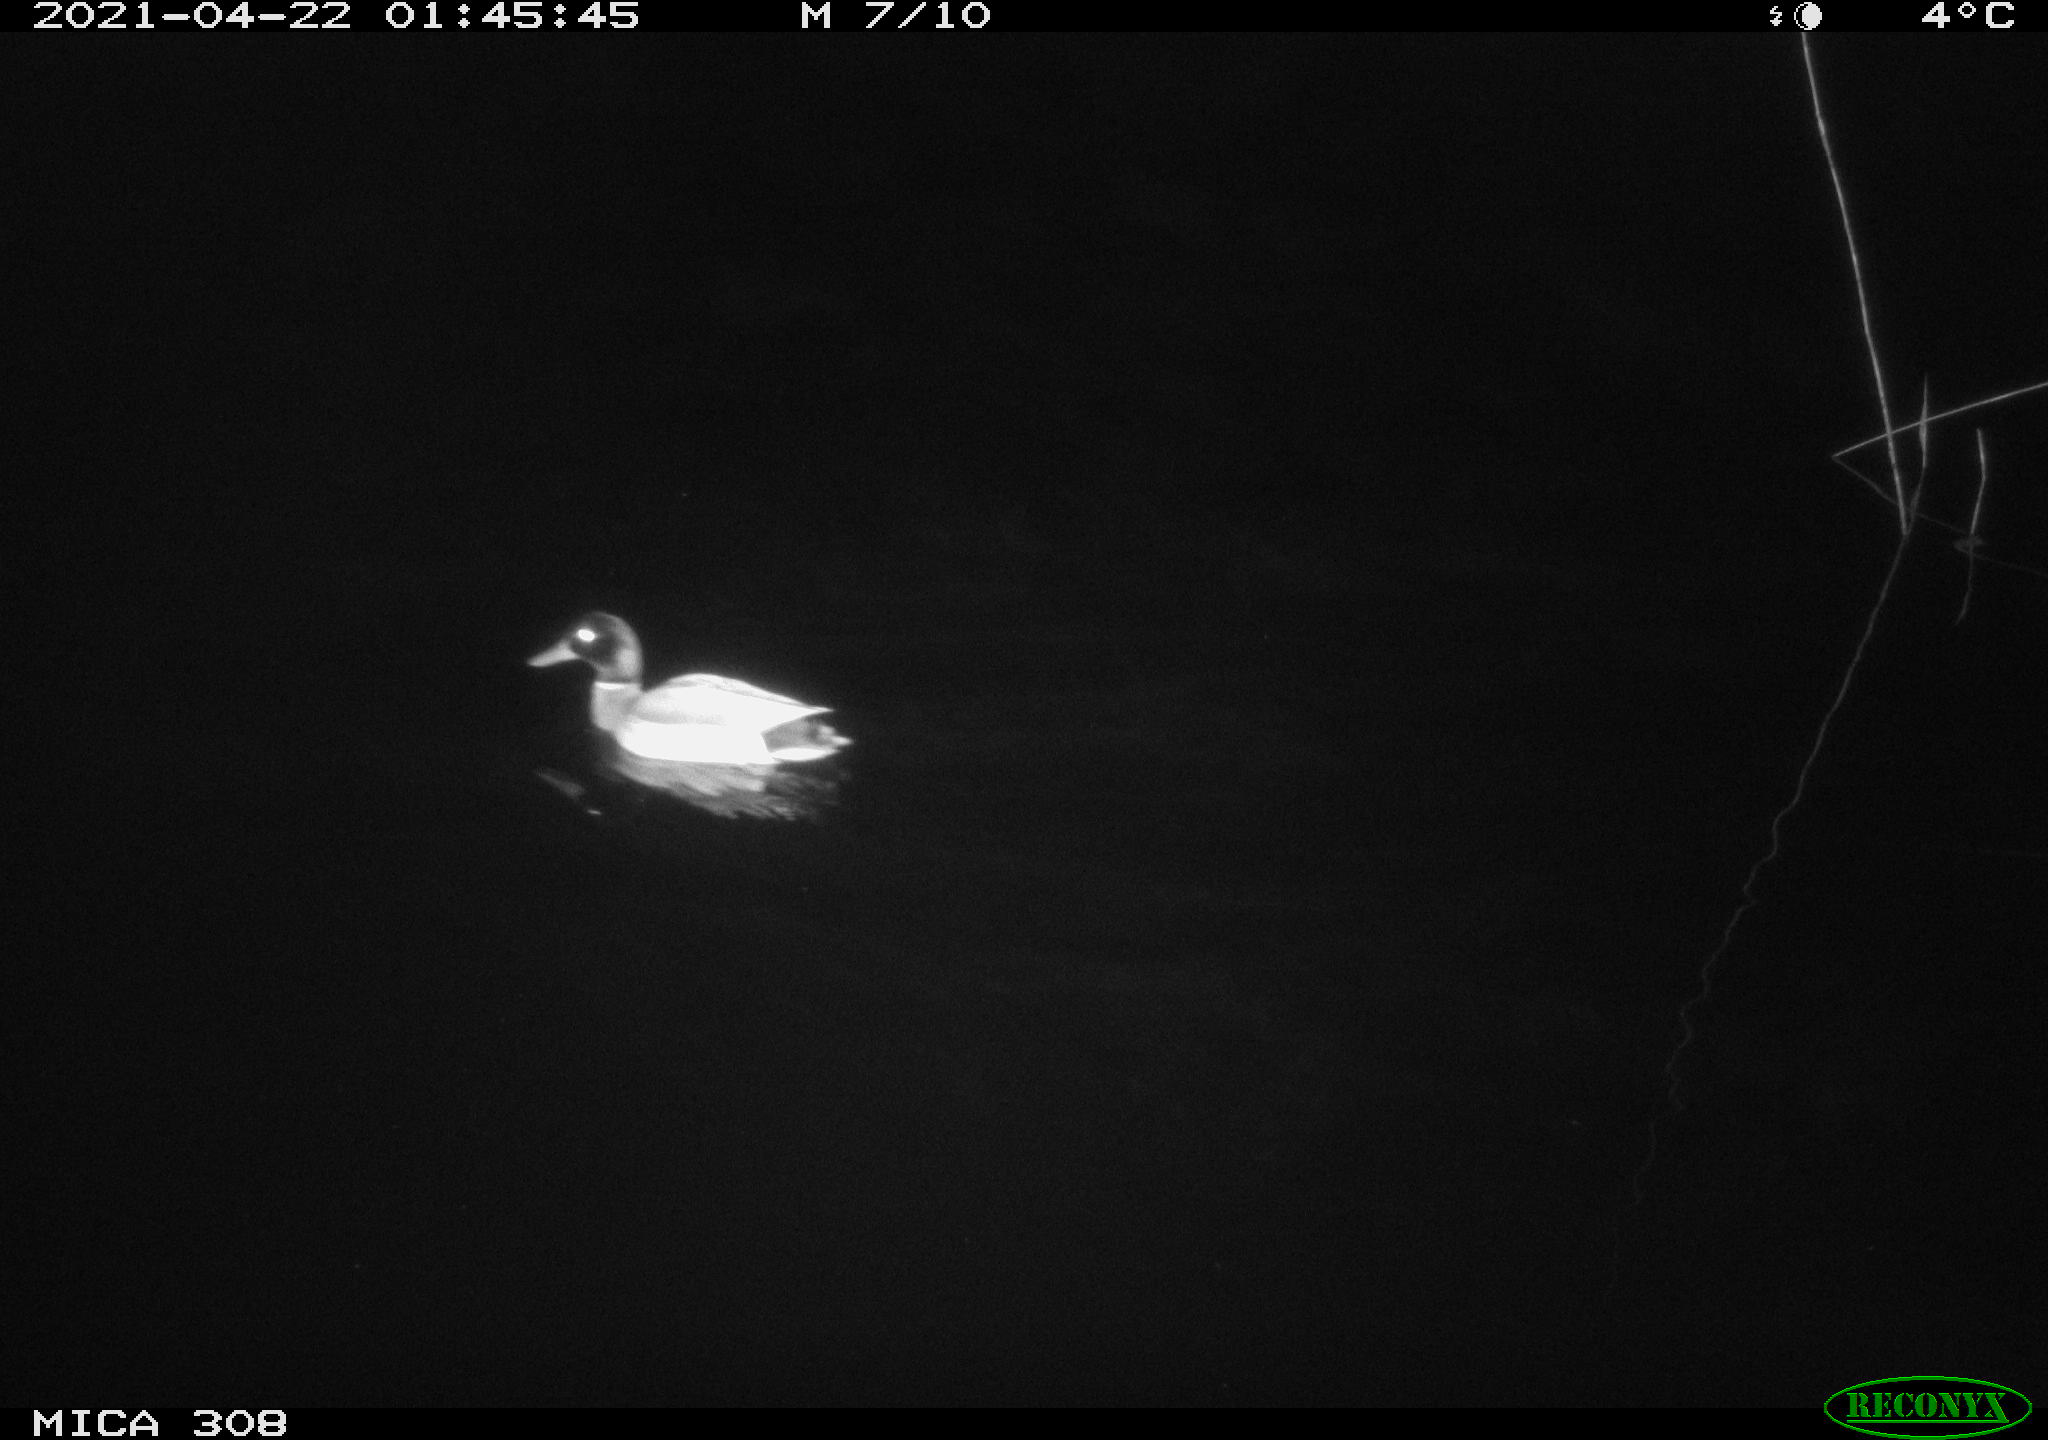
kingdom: Animalia
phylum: Chordata
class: Aves
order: Anseriformes
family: Anatidae
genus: Anas
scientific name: Anas platyrhynchos
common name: Mallard
